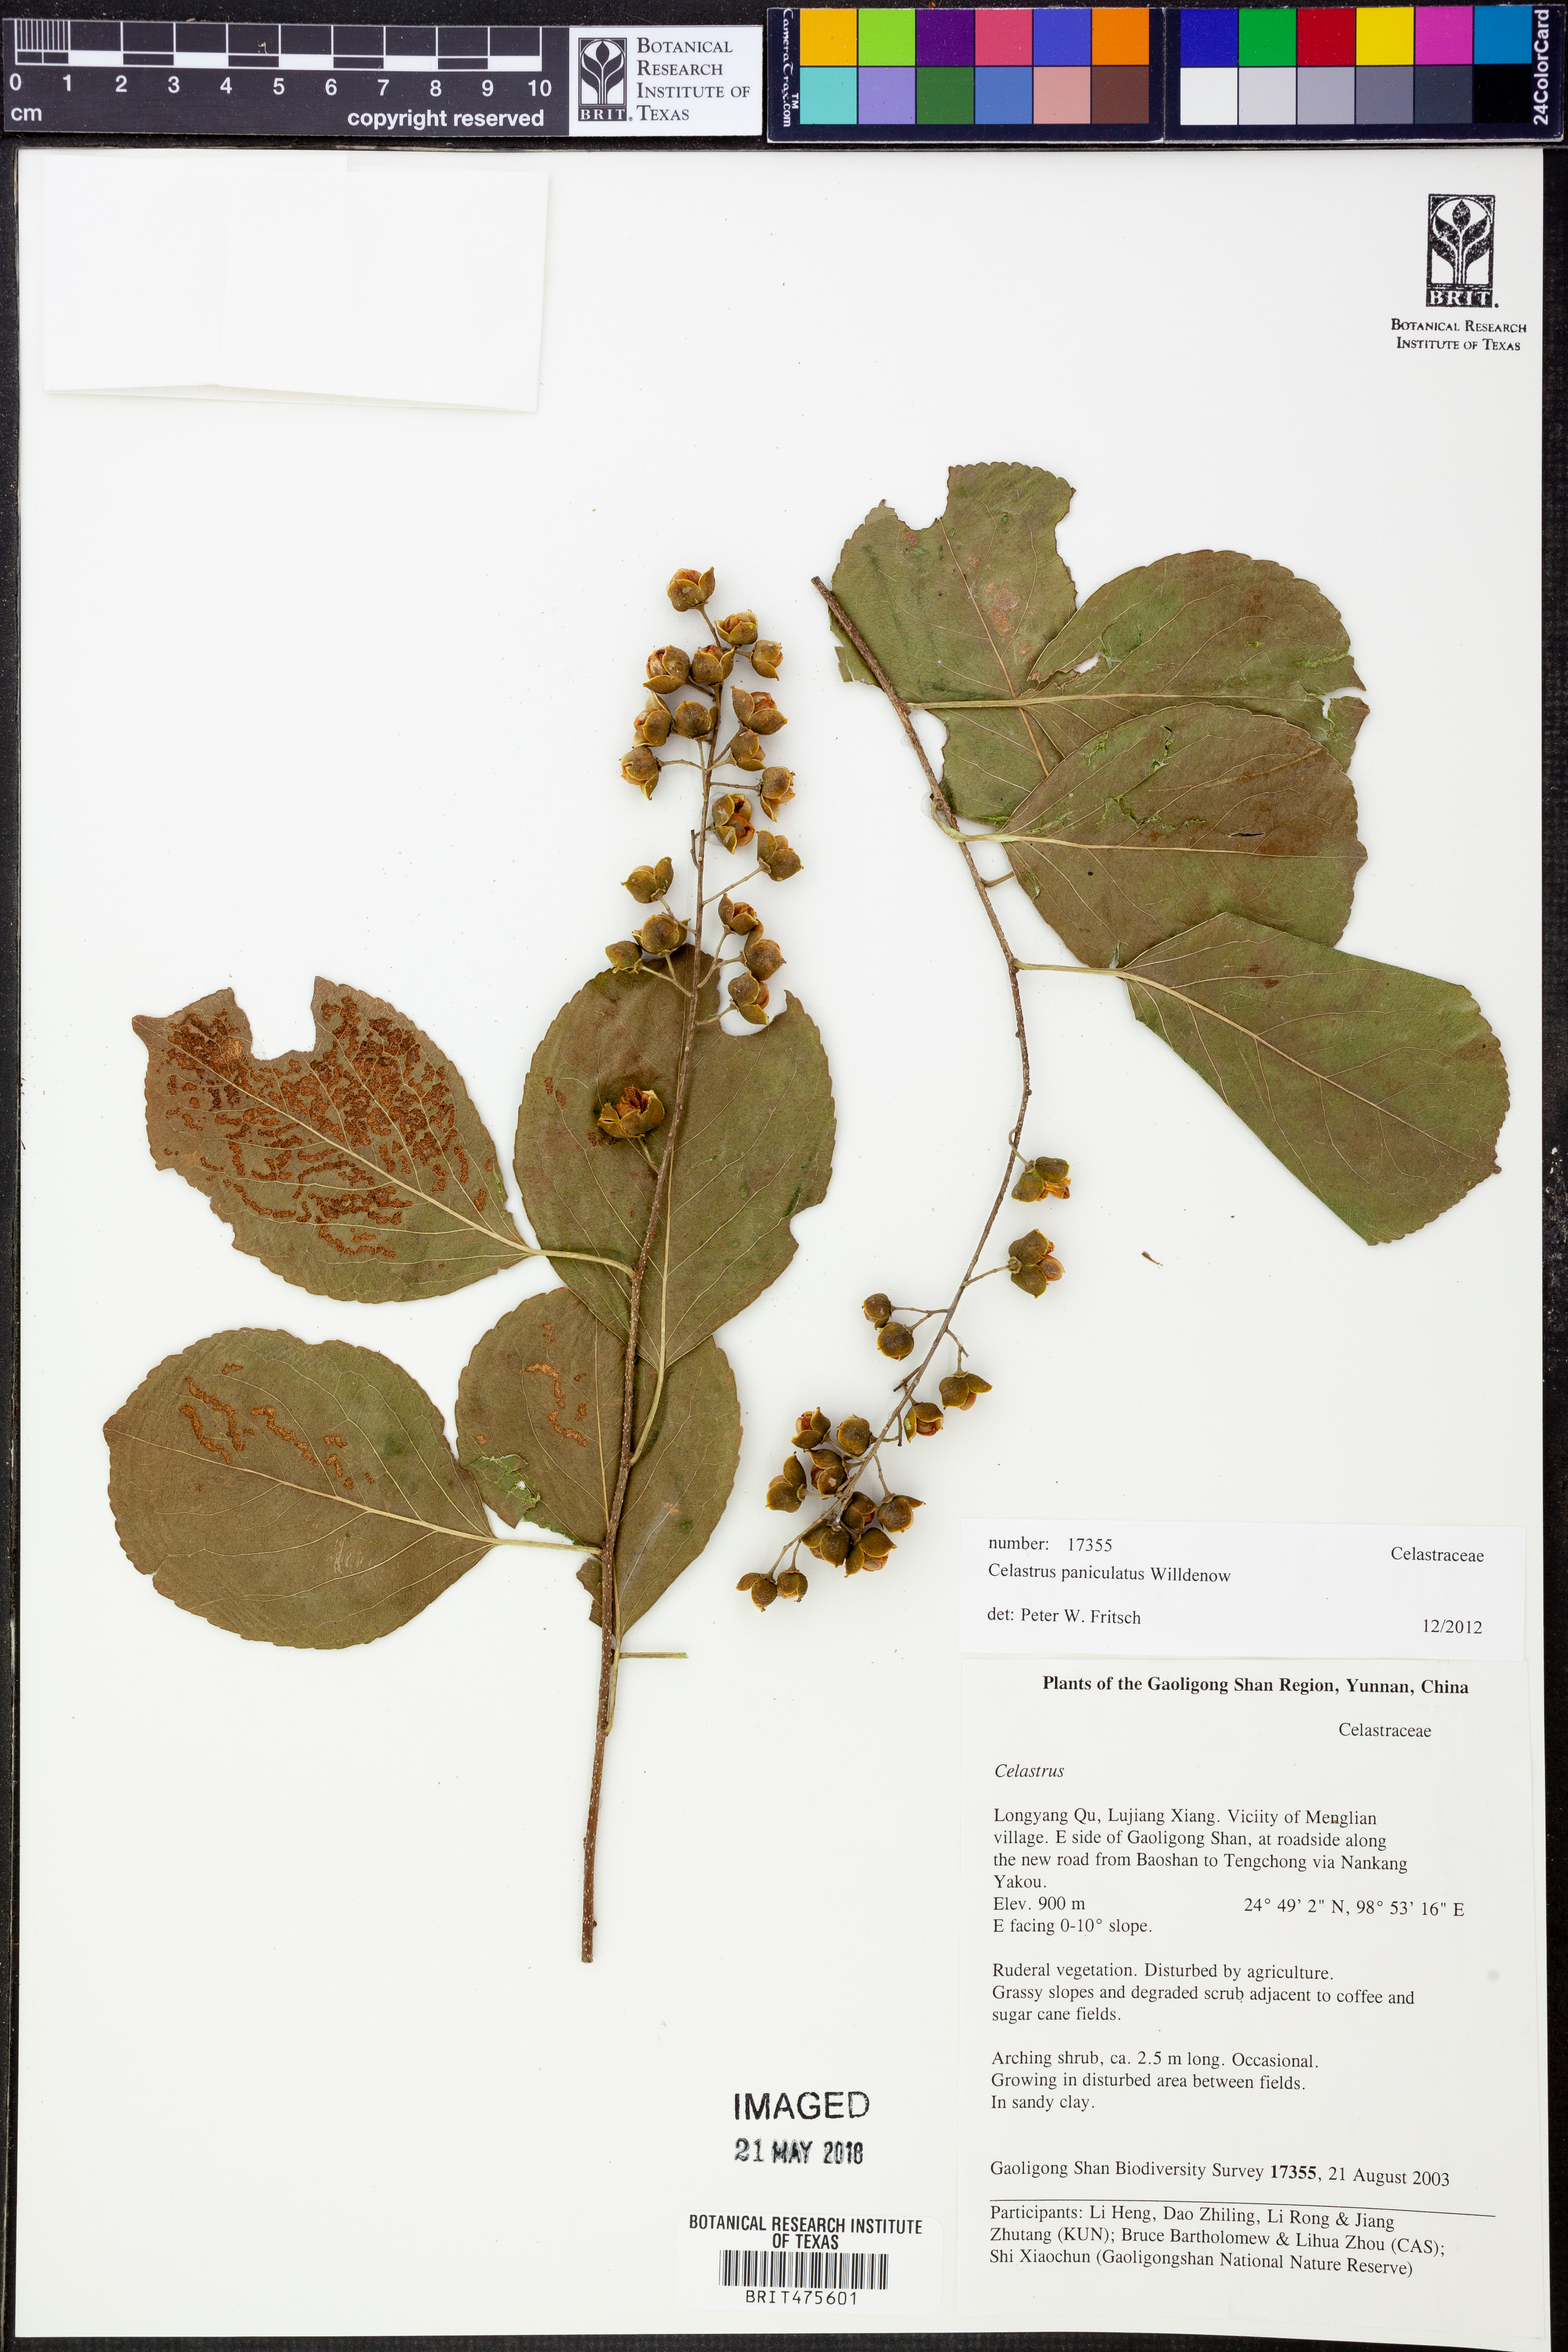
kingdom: Plantae
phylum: Tracheophyta
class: Magnoliopsida
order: Celastrales
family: Celastraceae
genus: Celastrus
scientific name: Celastrus paniculatus
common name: Oriental bittersweet; staff vine
